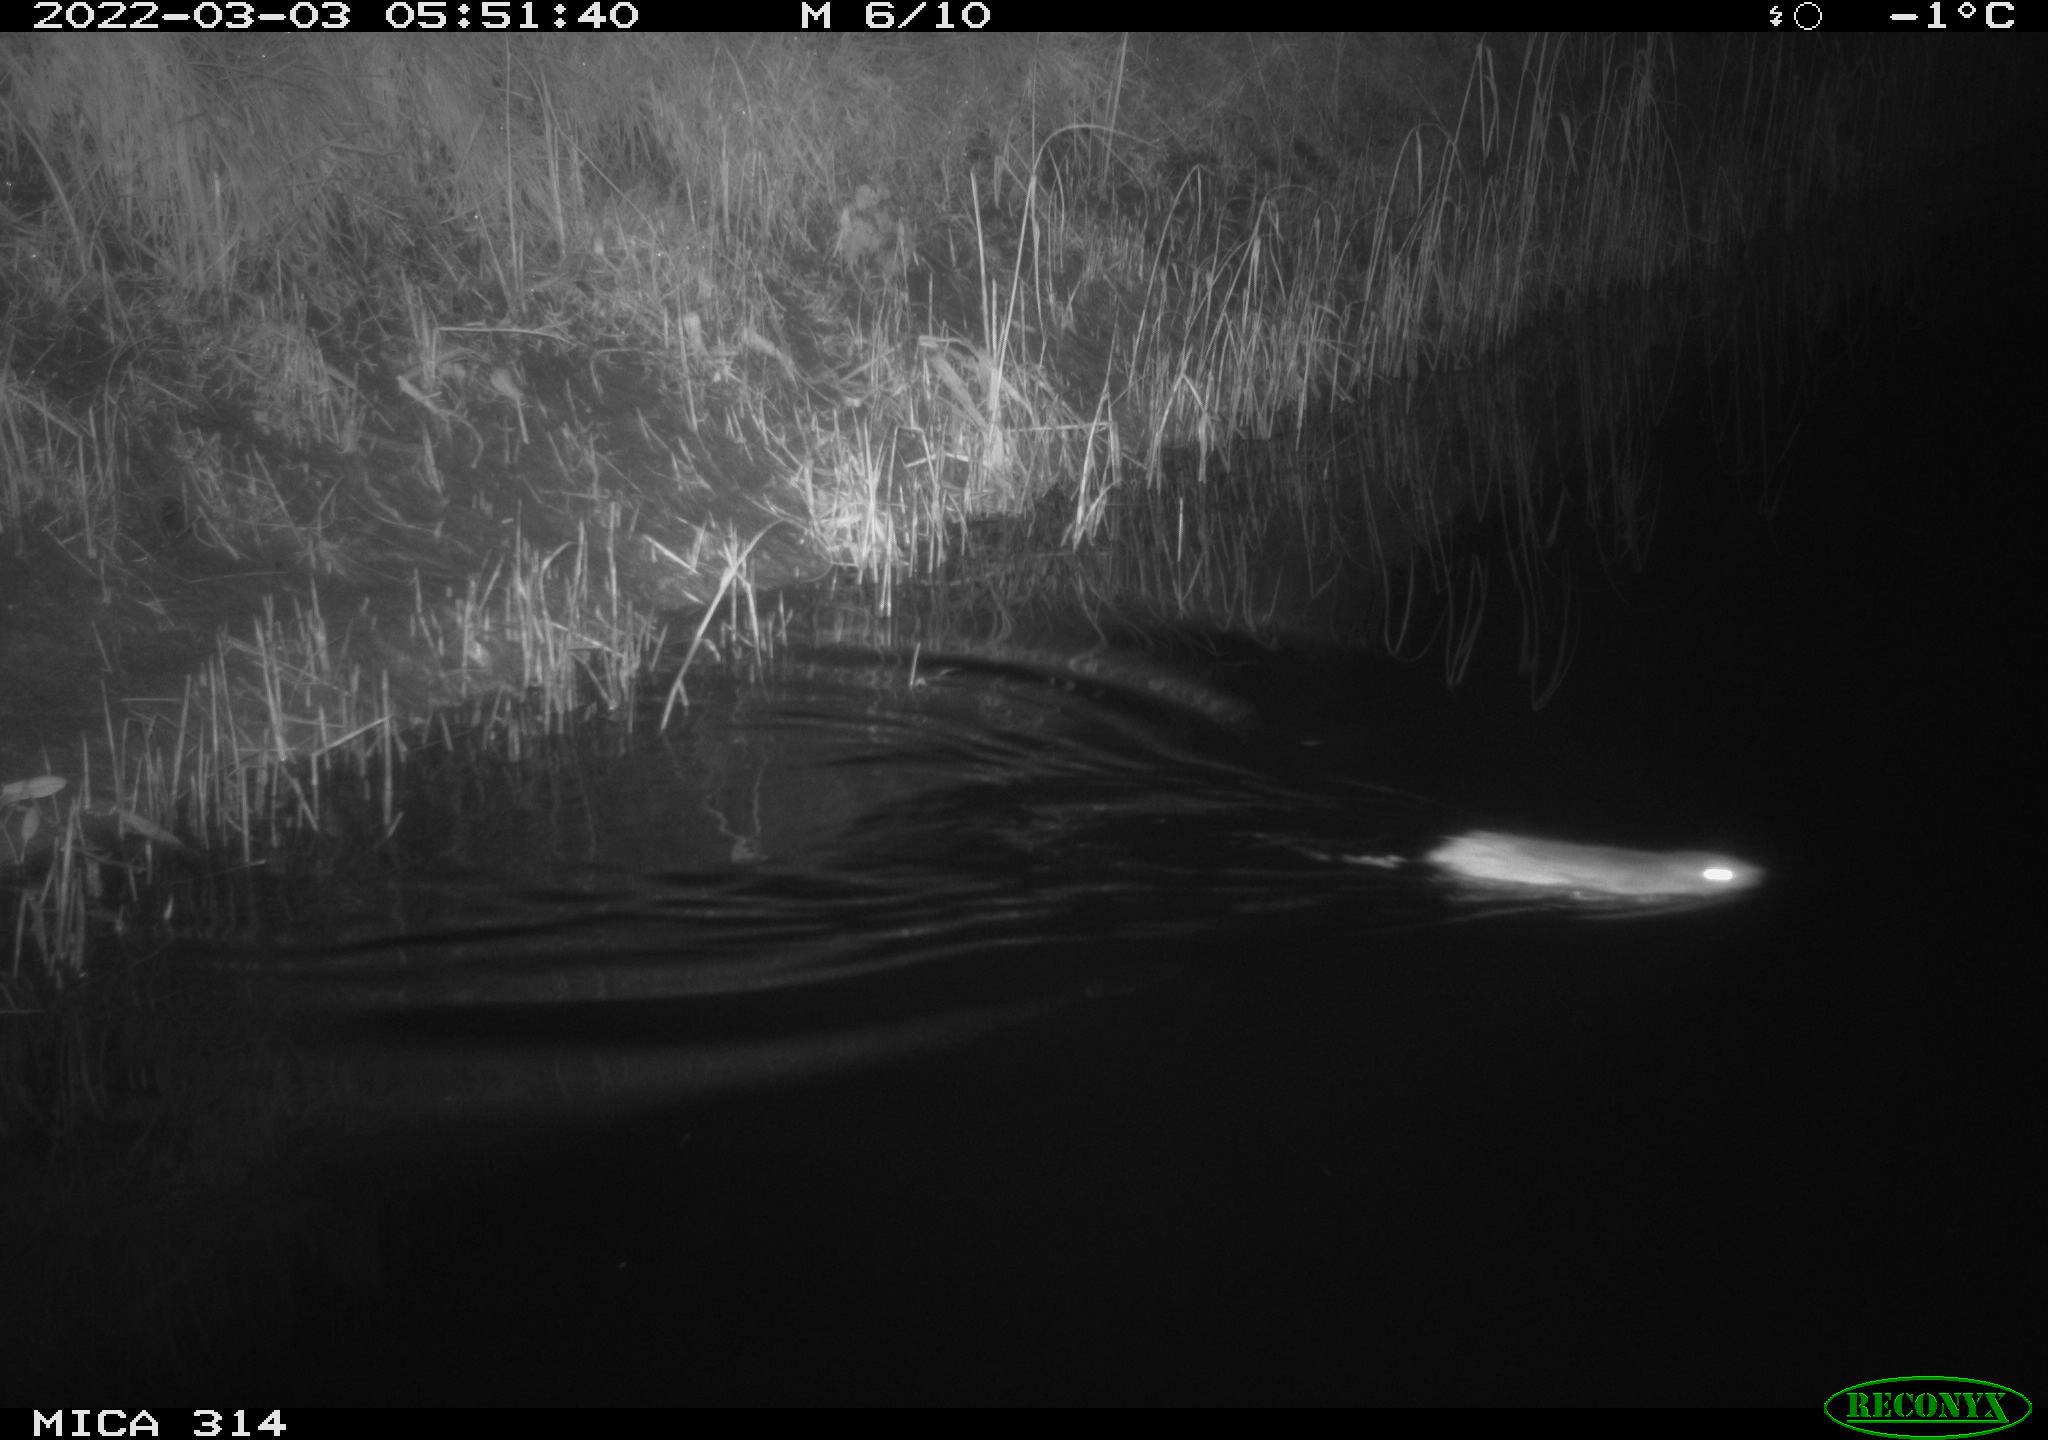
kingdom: Animalia
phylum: Chordata
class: Mammalia
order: Rodentia
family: Muridae
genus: Rattus
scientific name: Rattus norvegicus
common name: Brown rat
